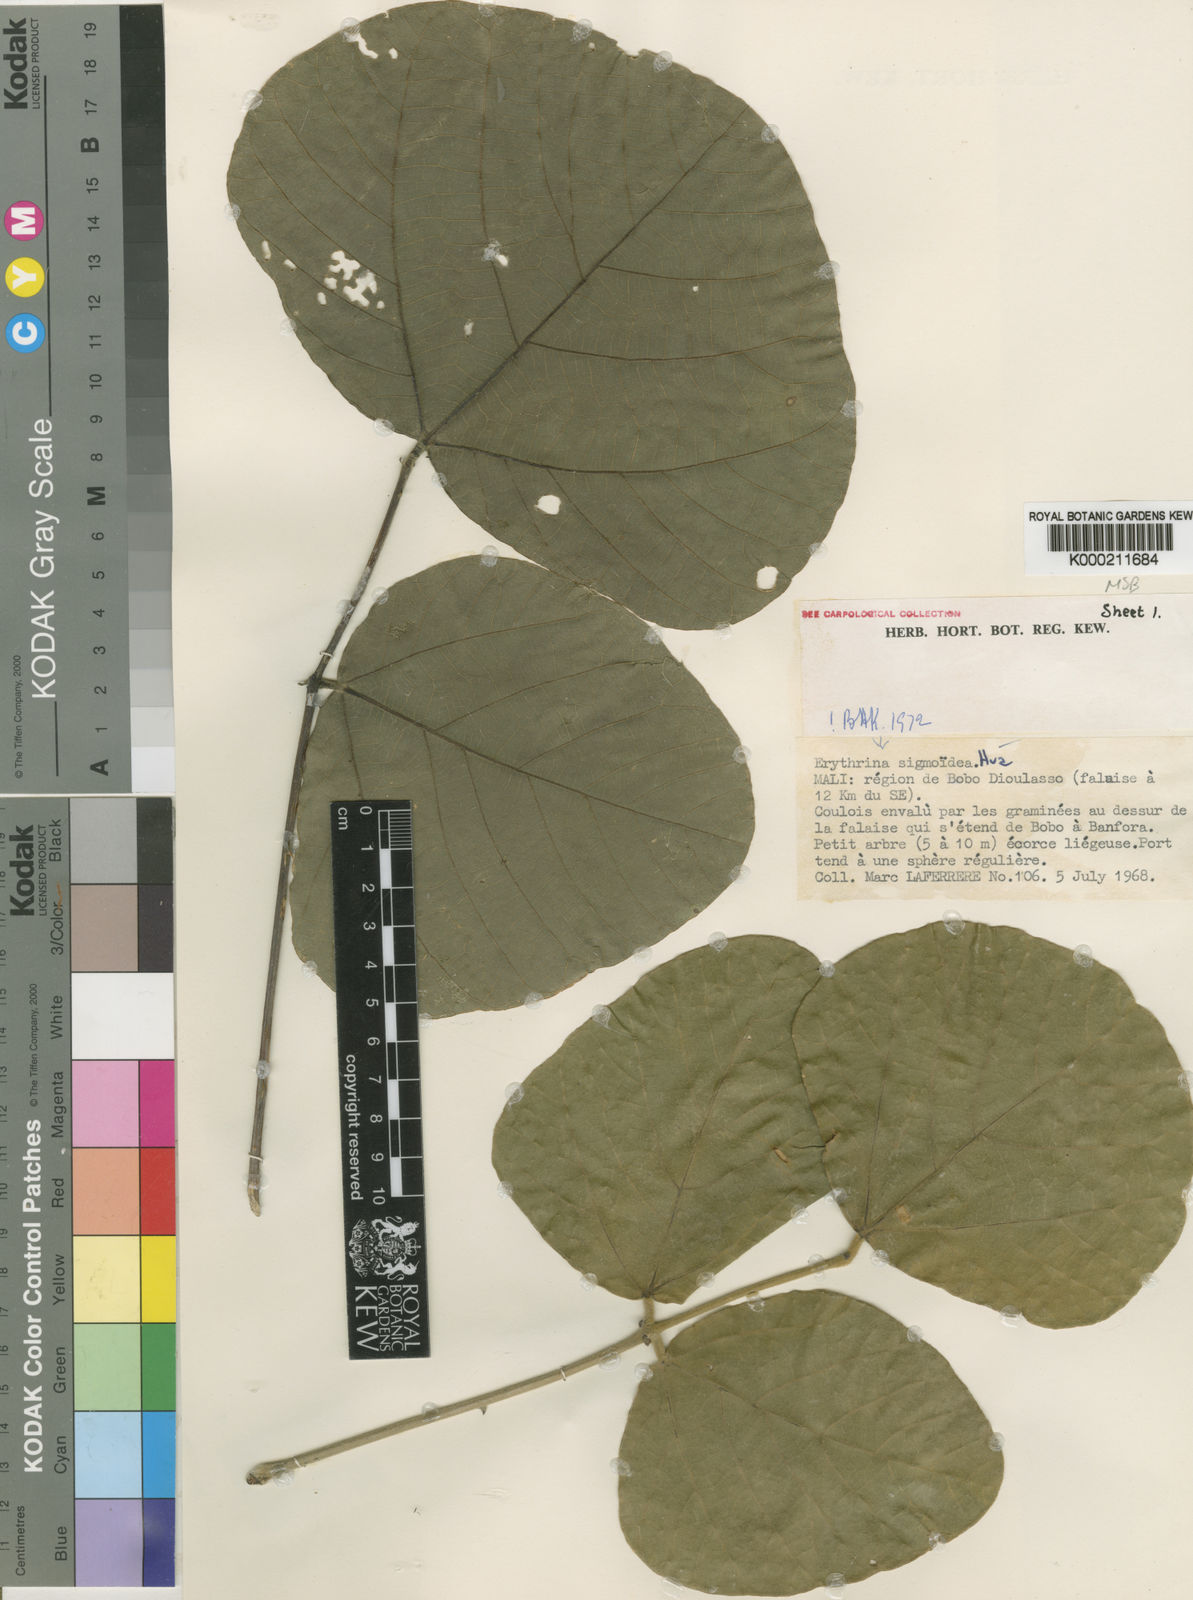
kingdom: Plantae
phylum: Tracheophyta
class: Magnoliopsida
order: Fabales
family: Fabaceae
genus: Erythrina
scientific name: Erythrina sigmoidea
